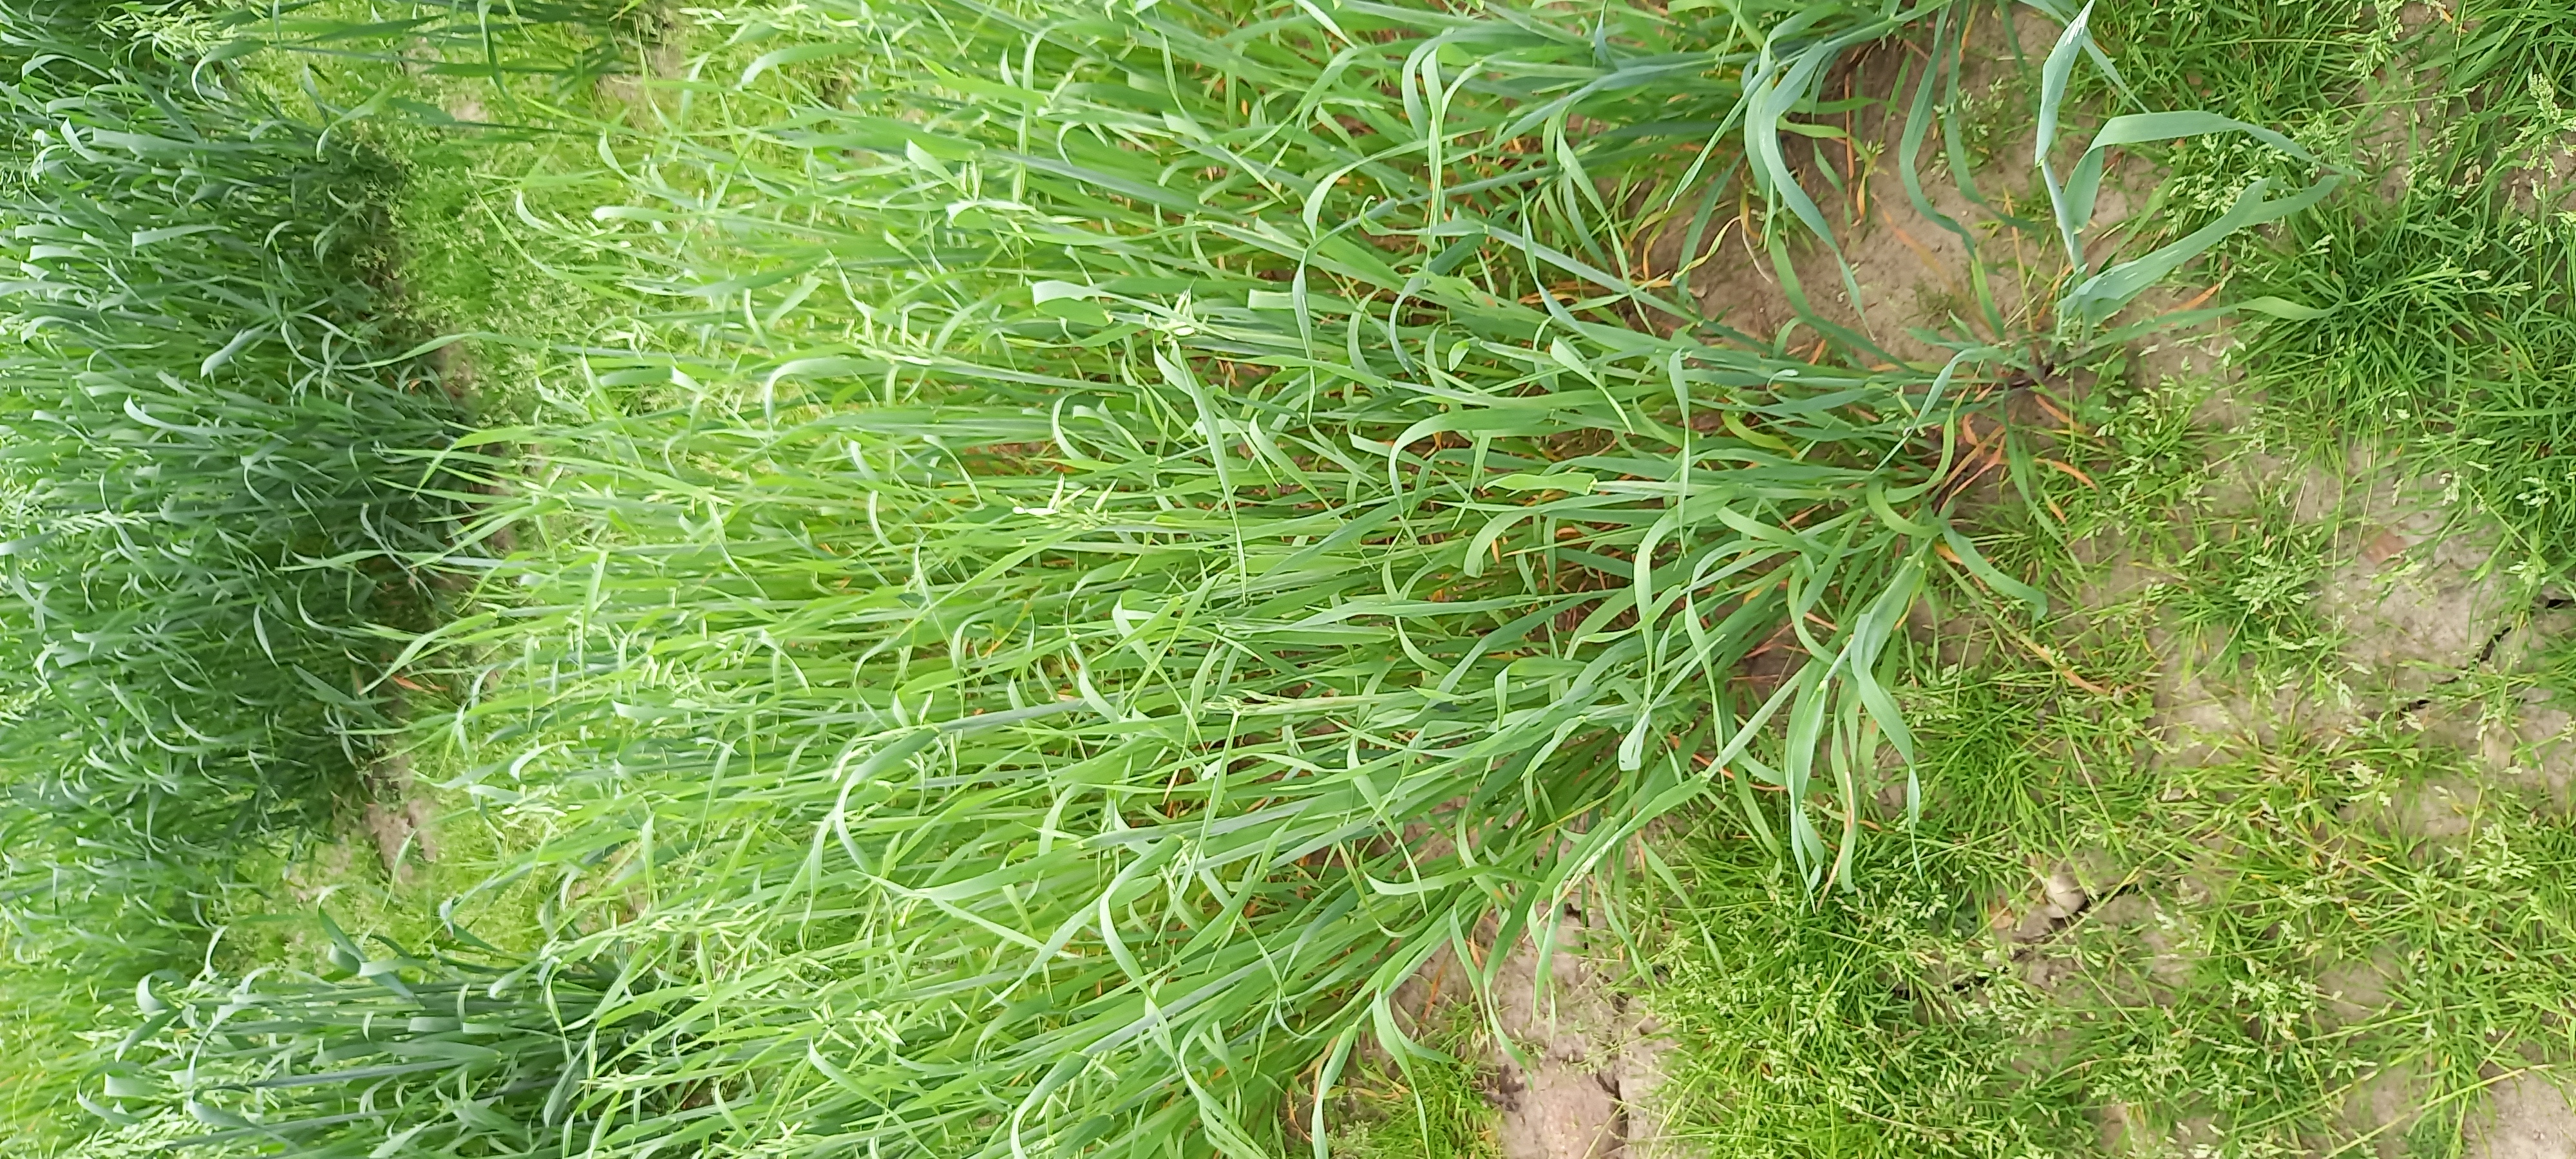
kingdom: Plantae
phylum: Tracheophyta
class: Liliopsida
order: Poales
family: Poaceae
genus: Avena
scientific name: Avena sativa
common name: Oat
